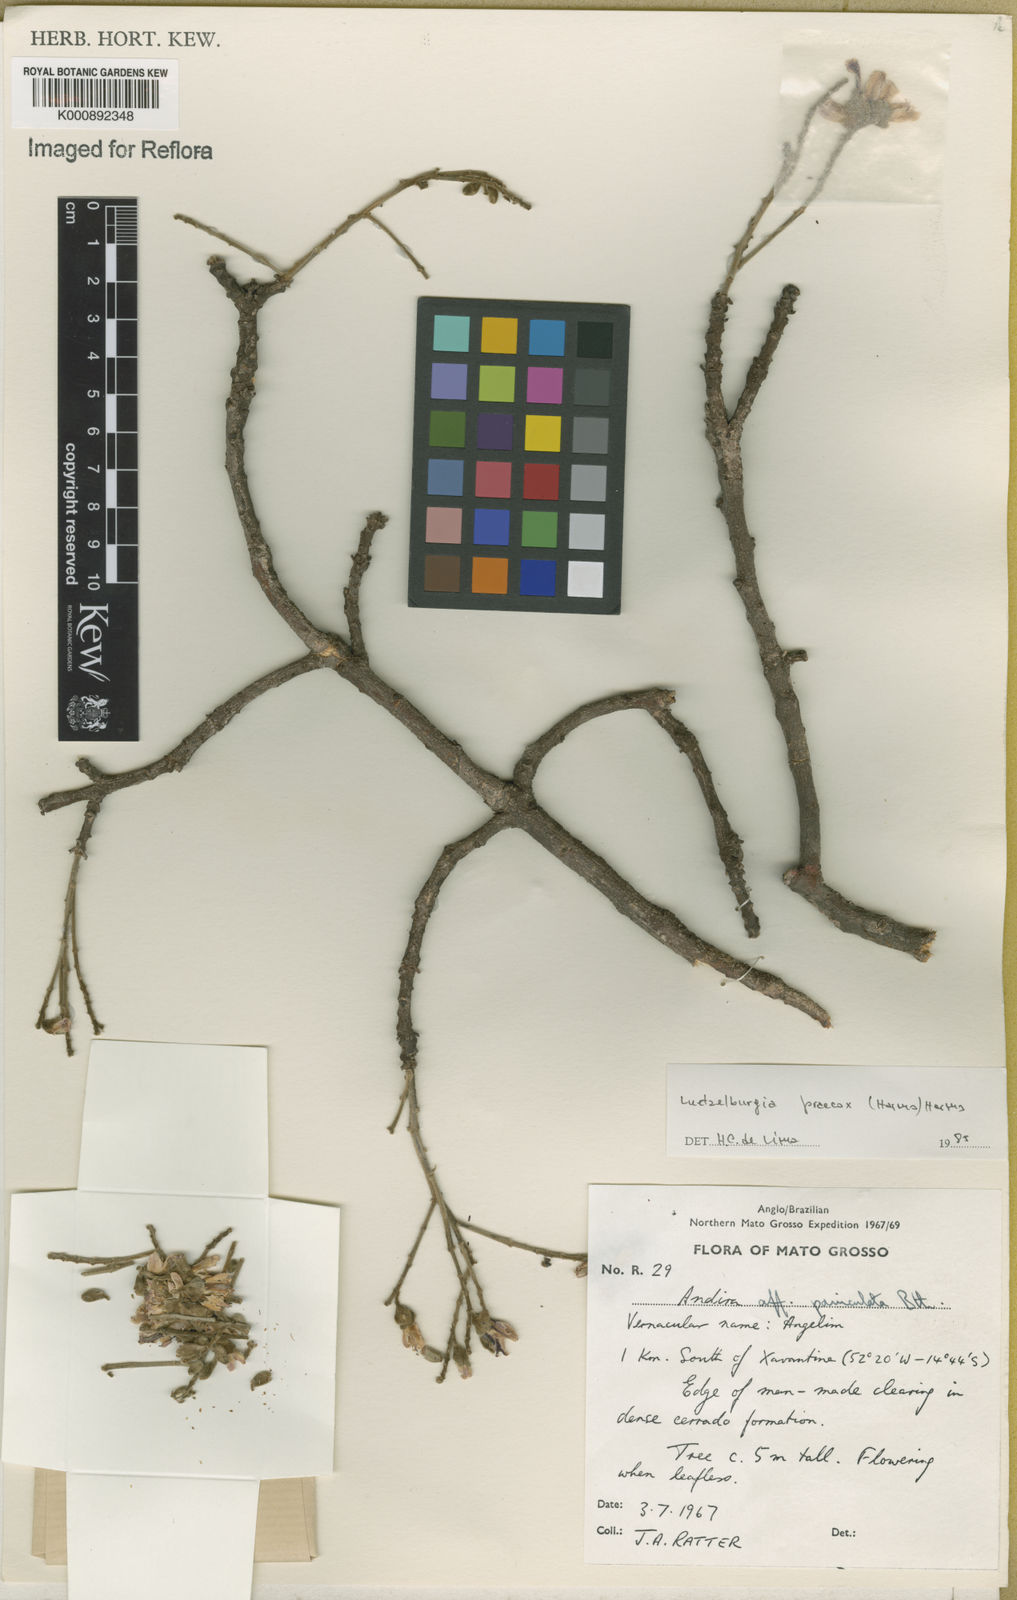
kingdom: Plantae
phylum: Tracheophyta
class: Magnoliopsida
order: Fabales
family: Fabaceae
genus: Luetzelburgia
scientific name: Luetzelburgia praecox
